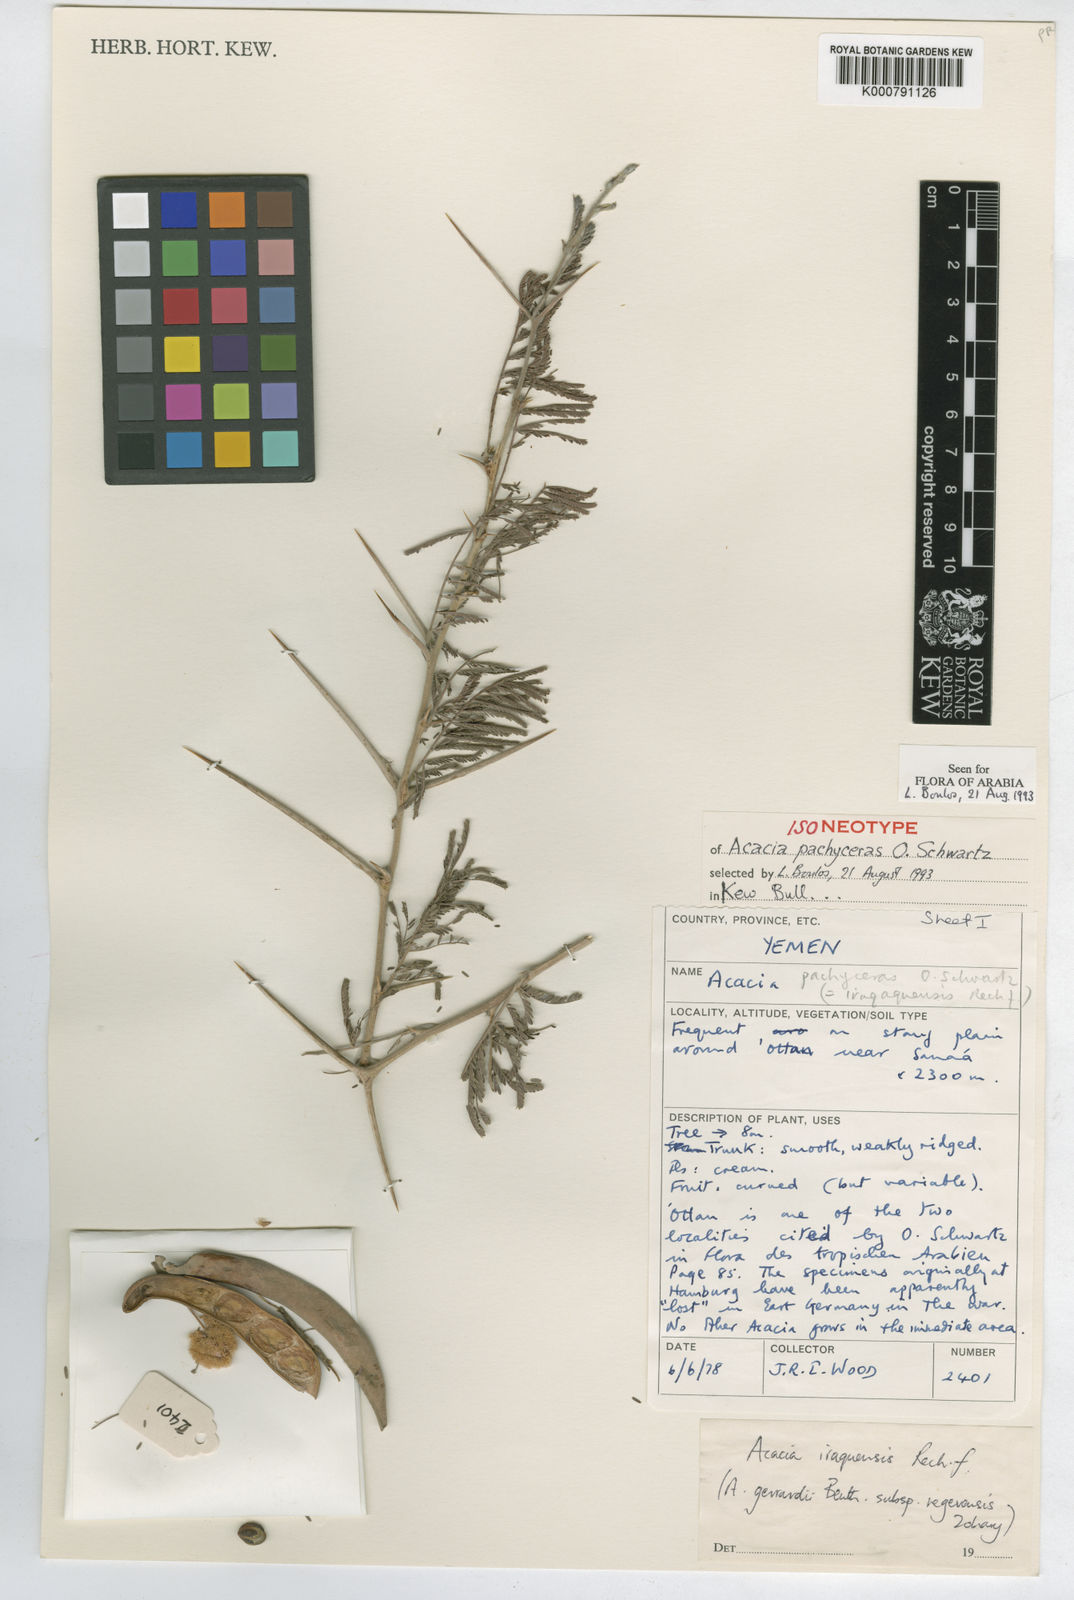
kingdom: Plantae
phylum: Tracheophyta
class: Magnoliopsida
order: Fabales
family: Fabaceae
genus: Acacia
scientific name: Acacia pachyceras
